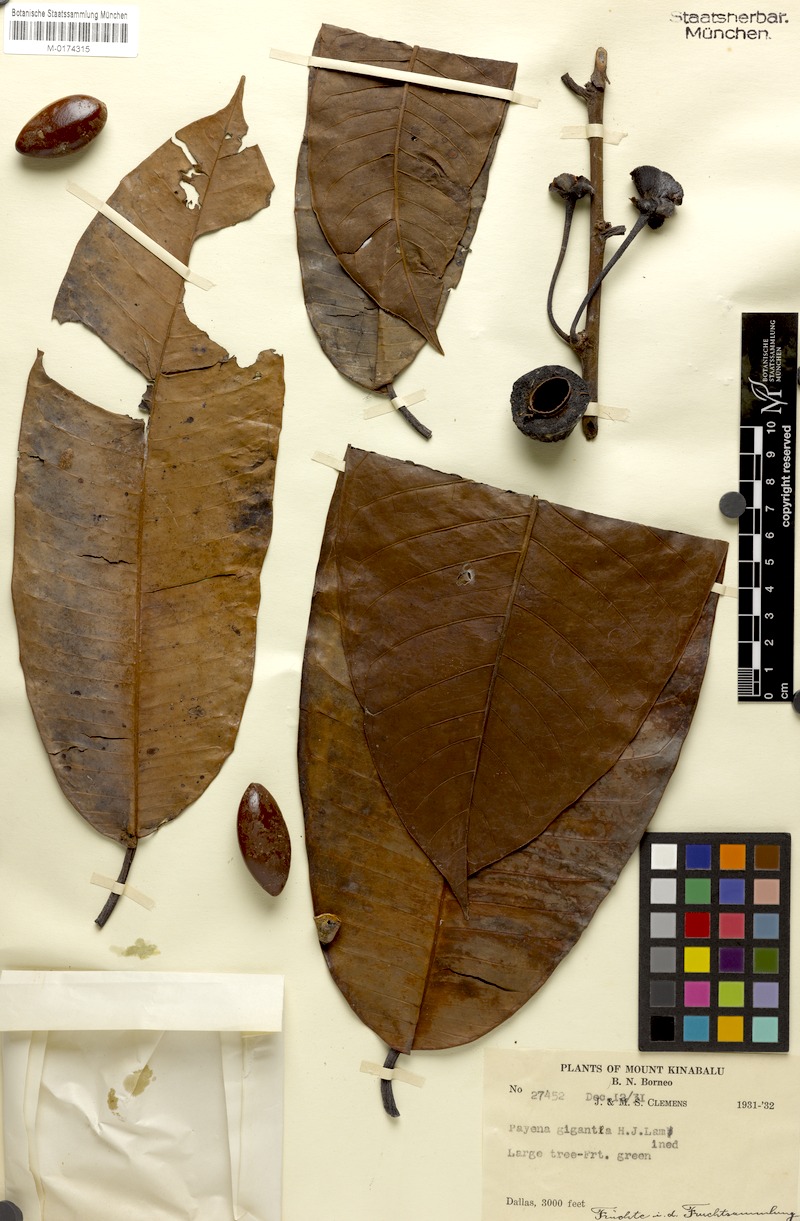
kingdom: Plantae
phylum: Tracheophyta
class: Magnoliopsida
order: Ericales
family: Sapotaceae
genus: Payena
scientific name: Payena gigas
